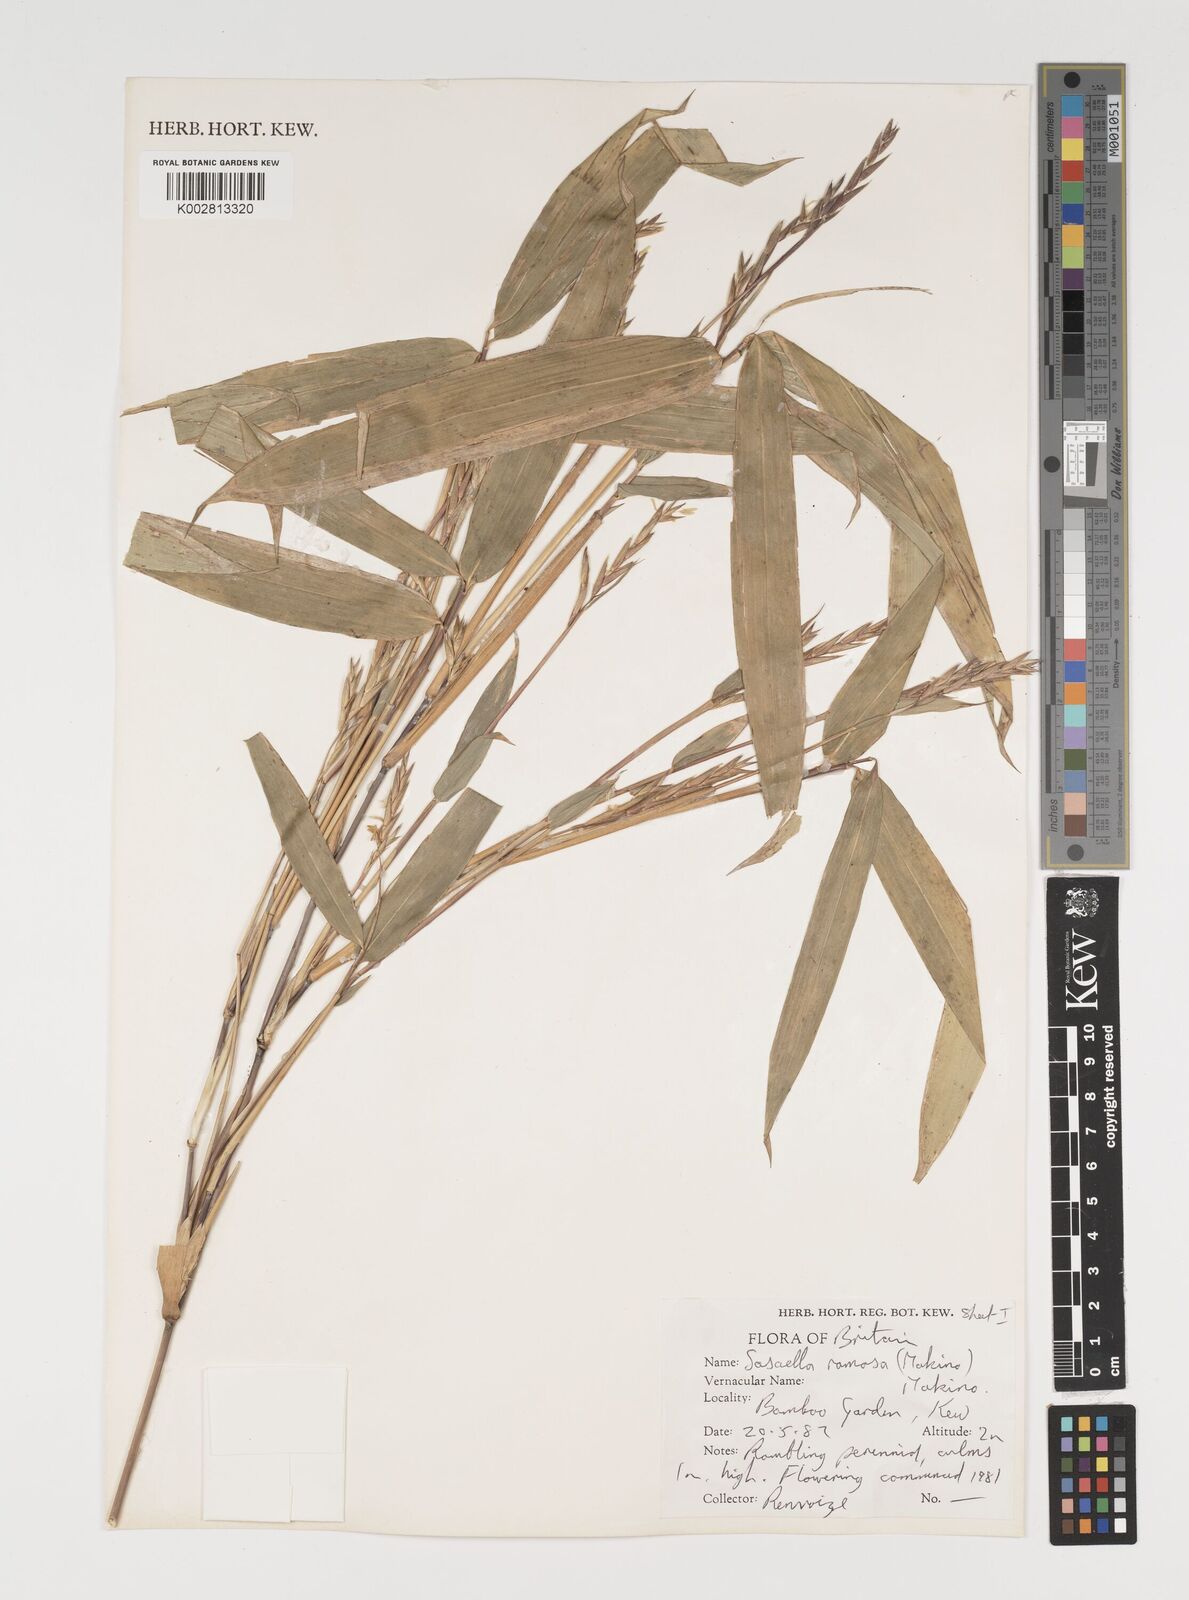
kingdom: Plantae
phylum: Tracheophyta
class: Liliopsida
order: Poales
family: Poaceae
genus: Sasaella
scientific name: Sasaella ramosa
